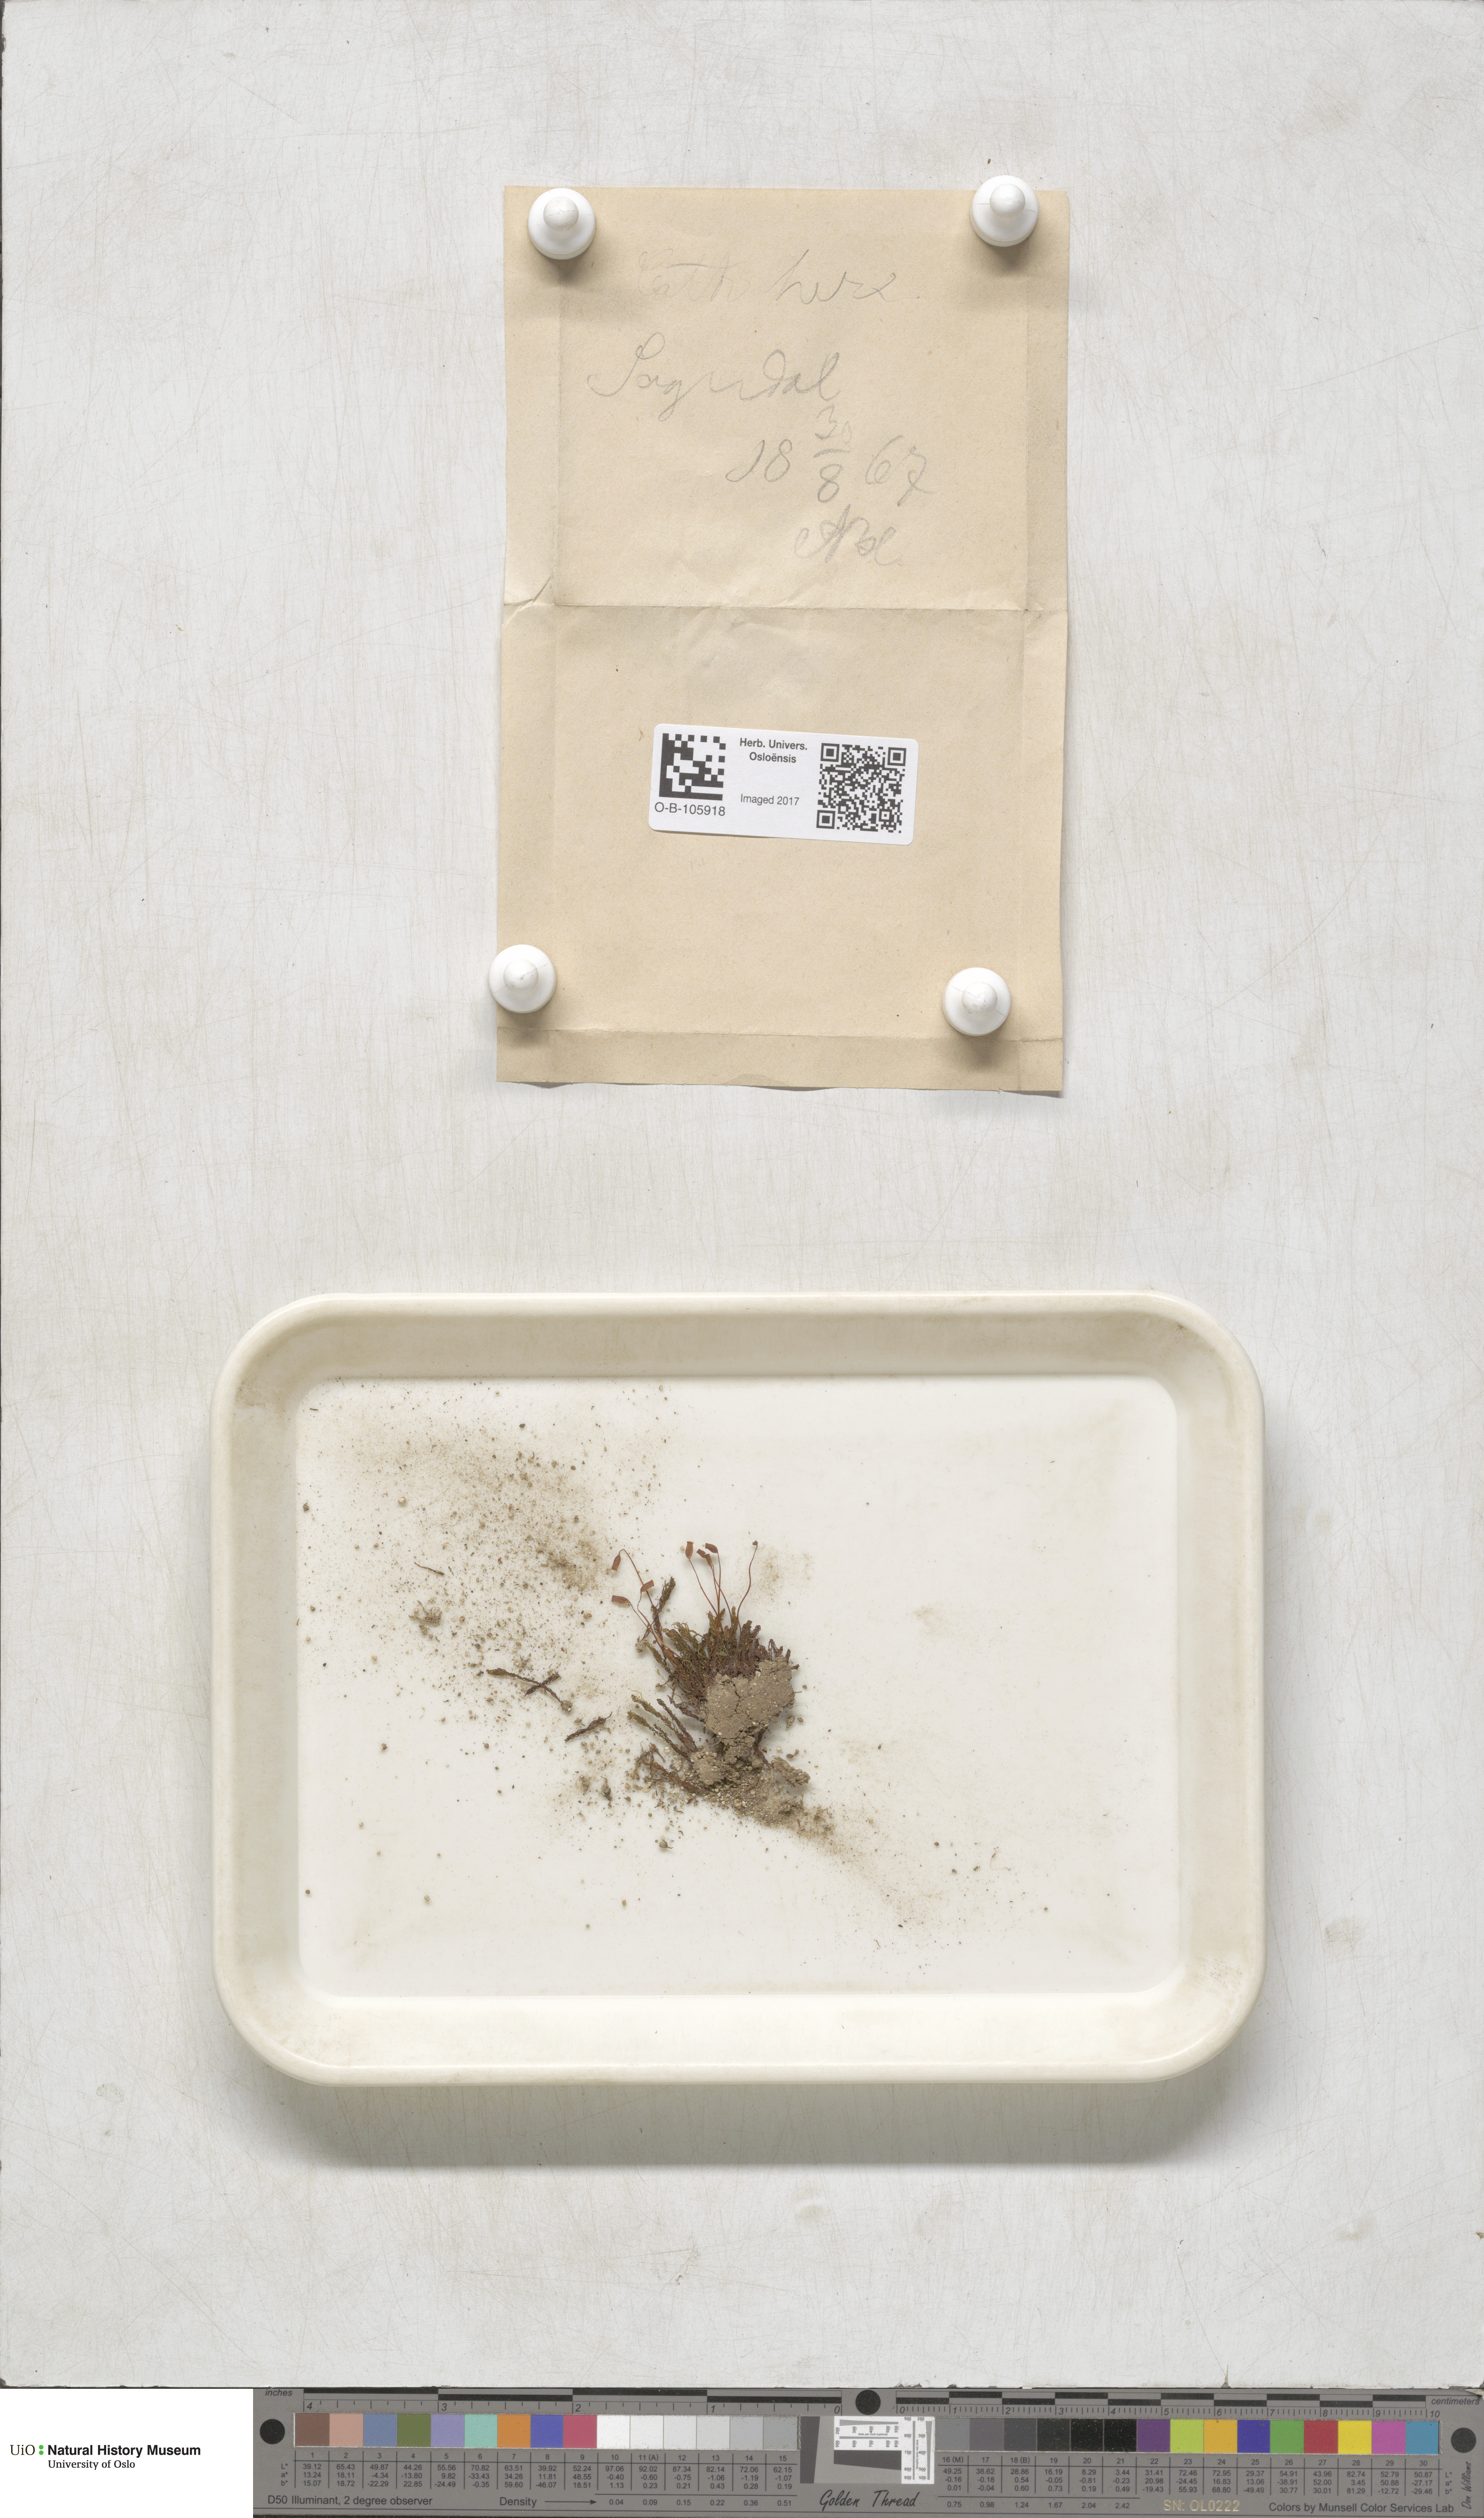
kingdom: Plantae
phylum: Bryophyta
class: Polytrichopsida
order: Polytrichales
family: Polytrichaceae
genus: Oligotrichum
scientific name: Oligotrichum hercynicum
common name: Hercynian hair moss
